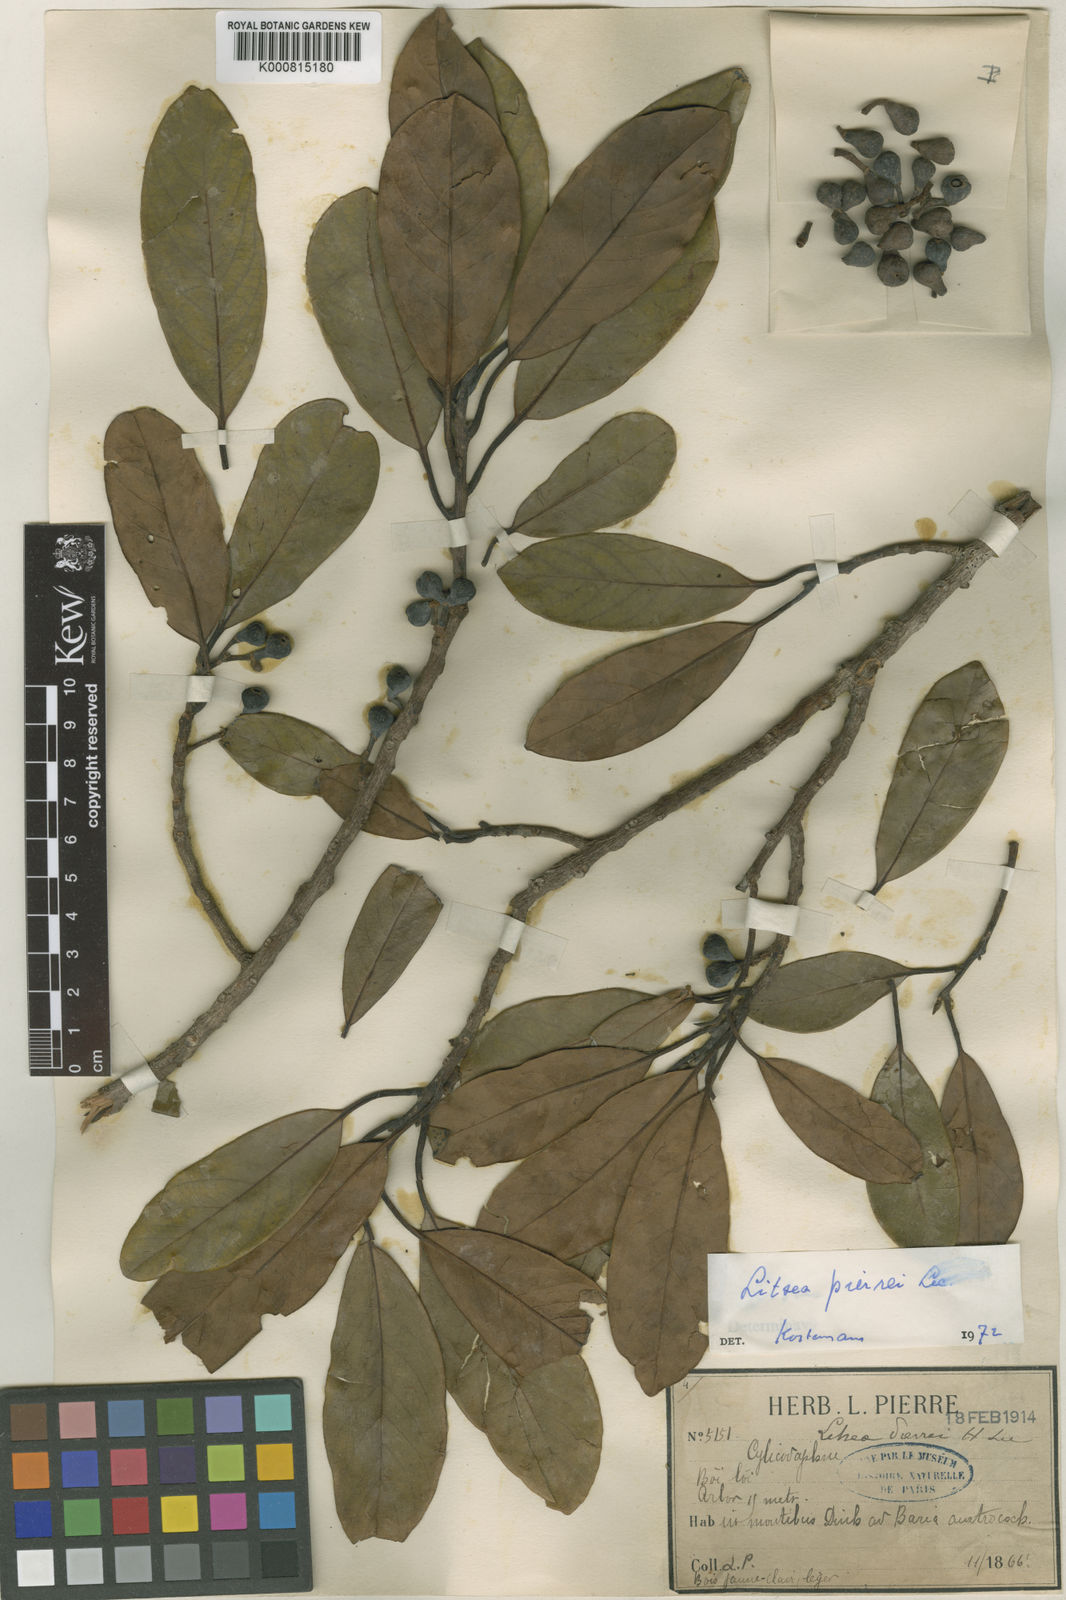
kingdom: Plantae
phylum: Tracheophyta
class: Magnoliopsida
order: Laurales
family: Lauraceae
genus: Litsea
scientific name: Litsea cambodiana
